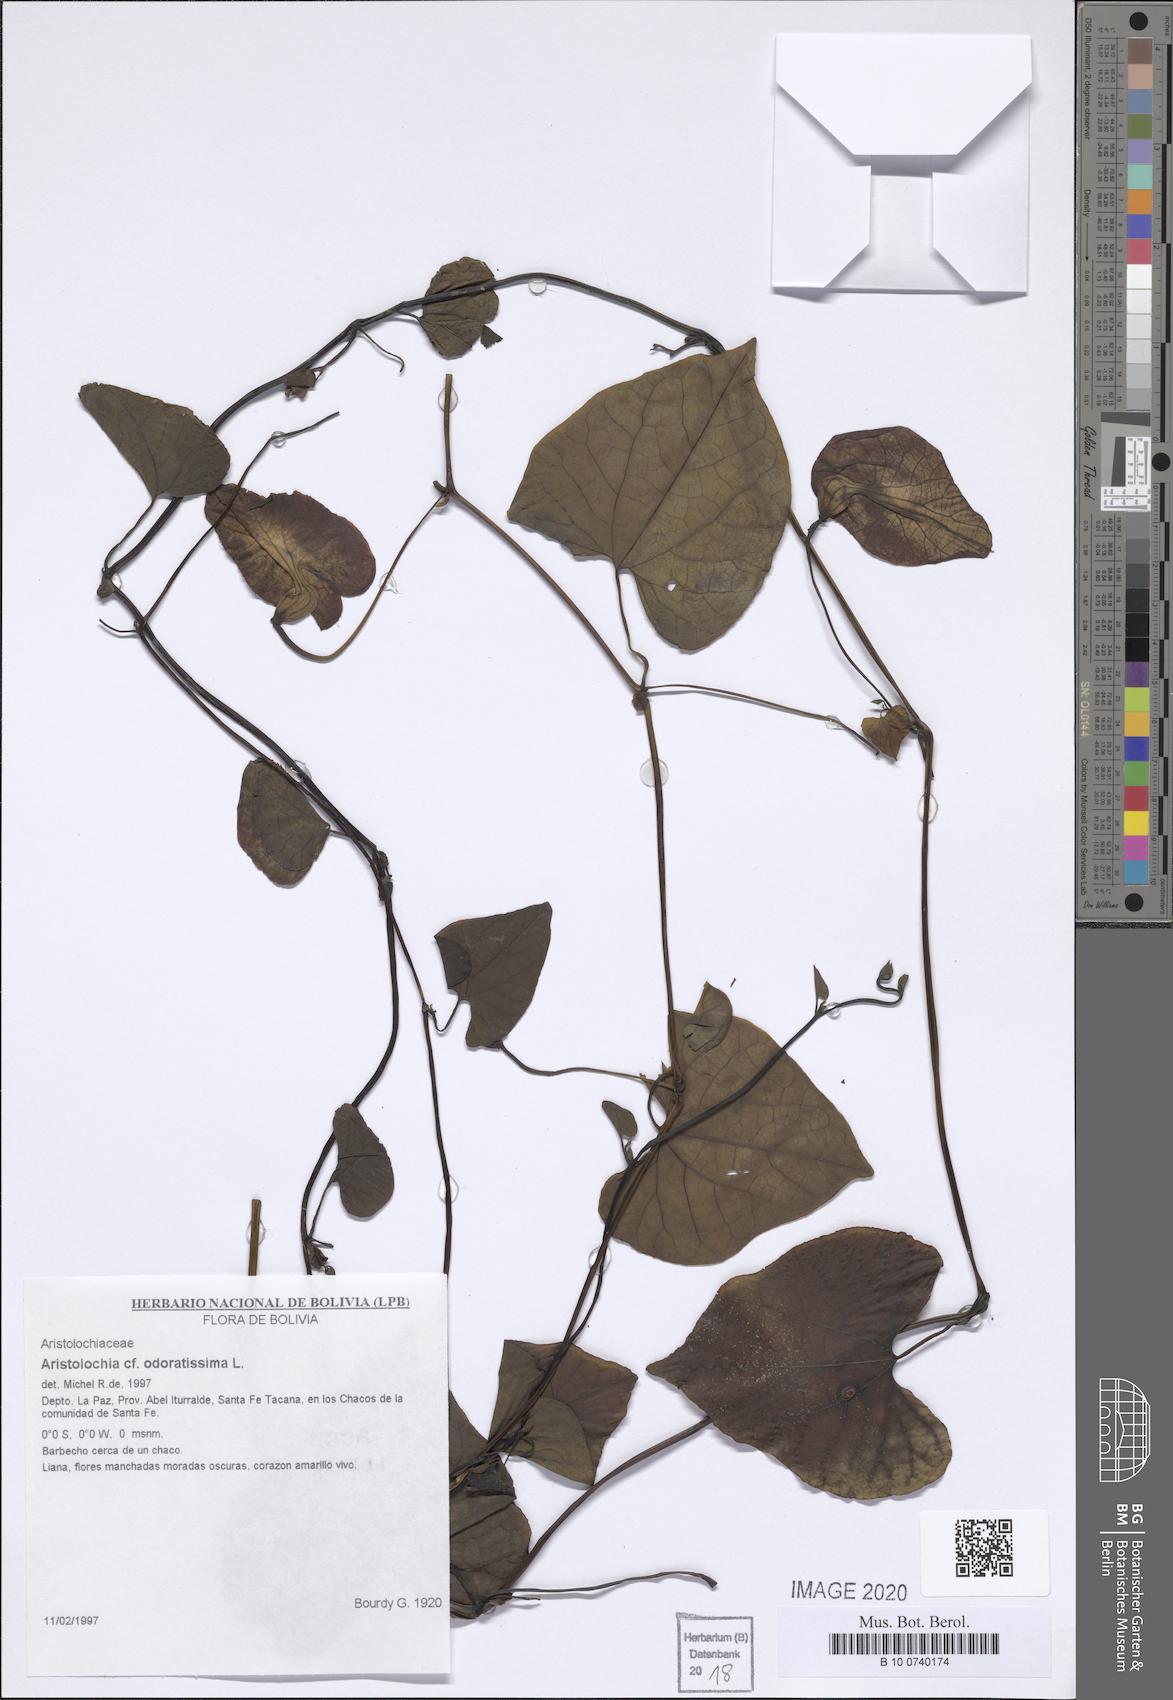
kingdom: Plantae
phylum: Tracheophyta
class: Magnoliopsida
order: Piperales
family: Aristolochiaceae
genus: Aristolochia
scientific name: Aristolochia odoratissima
